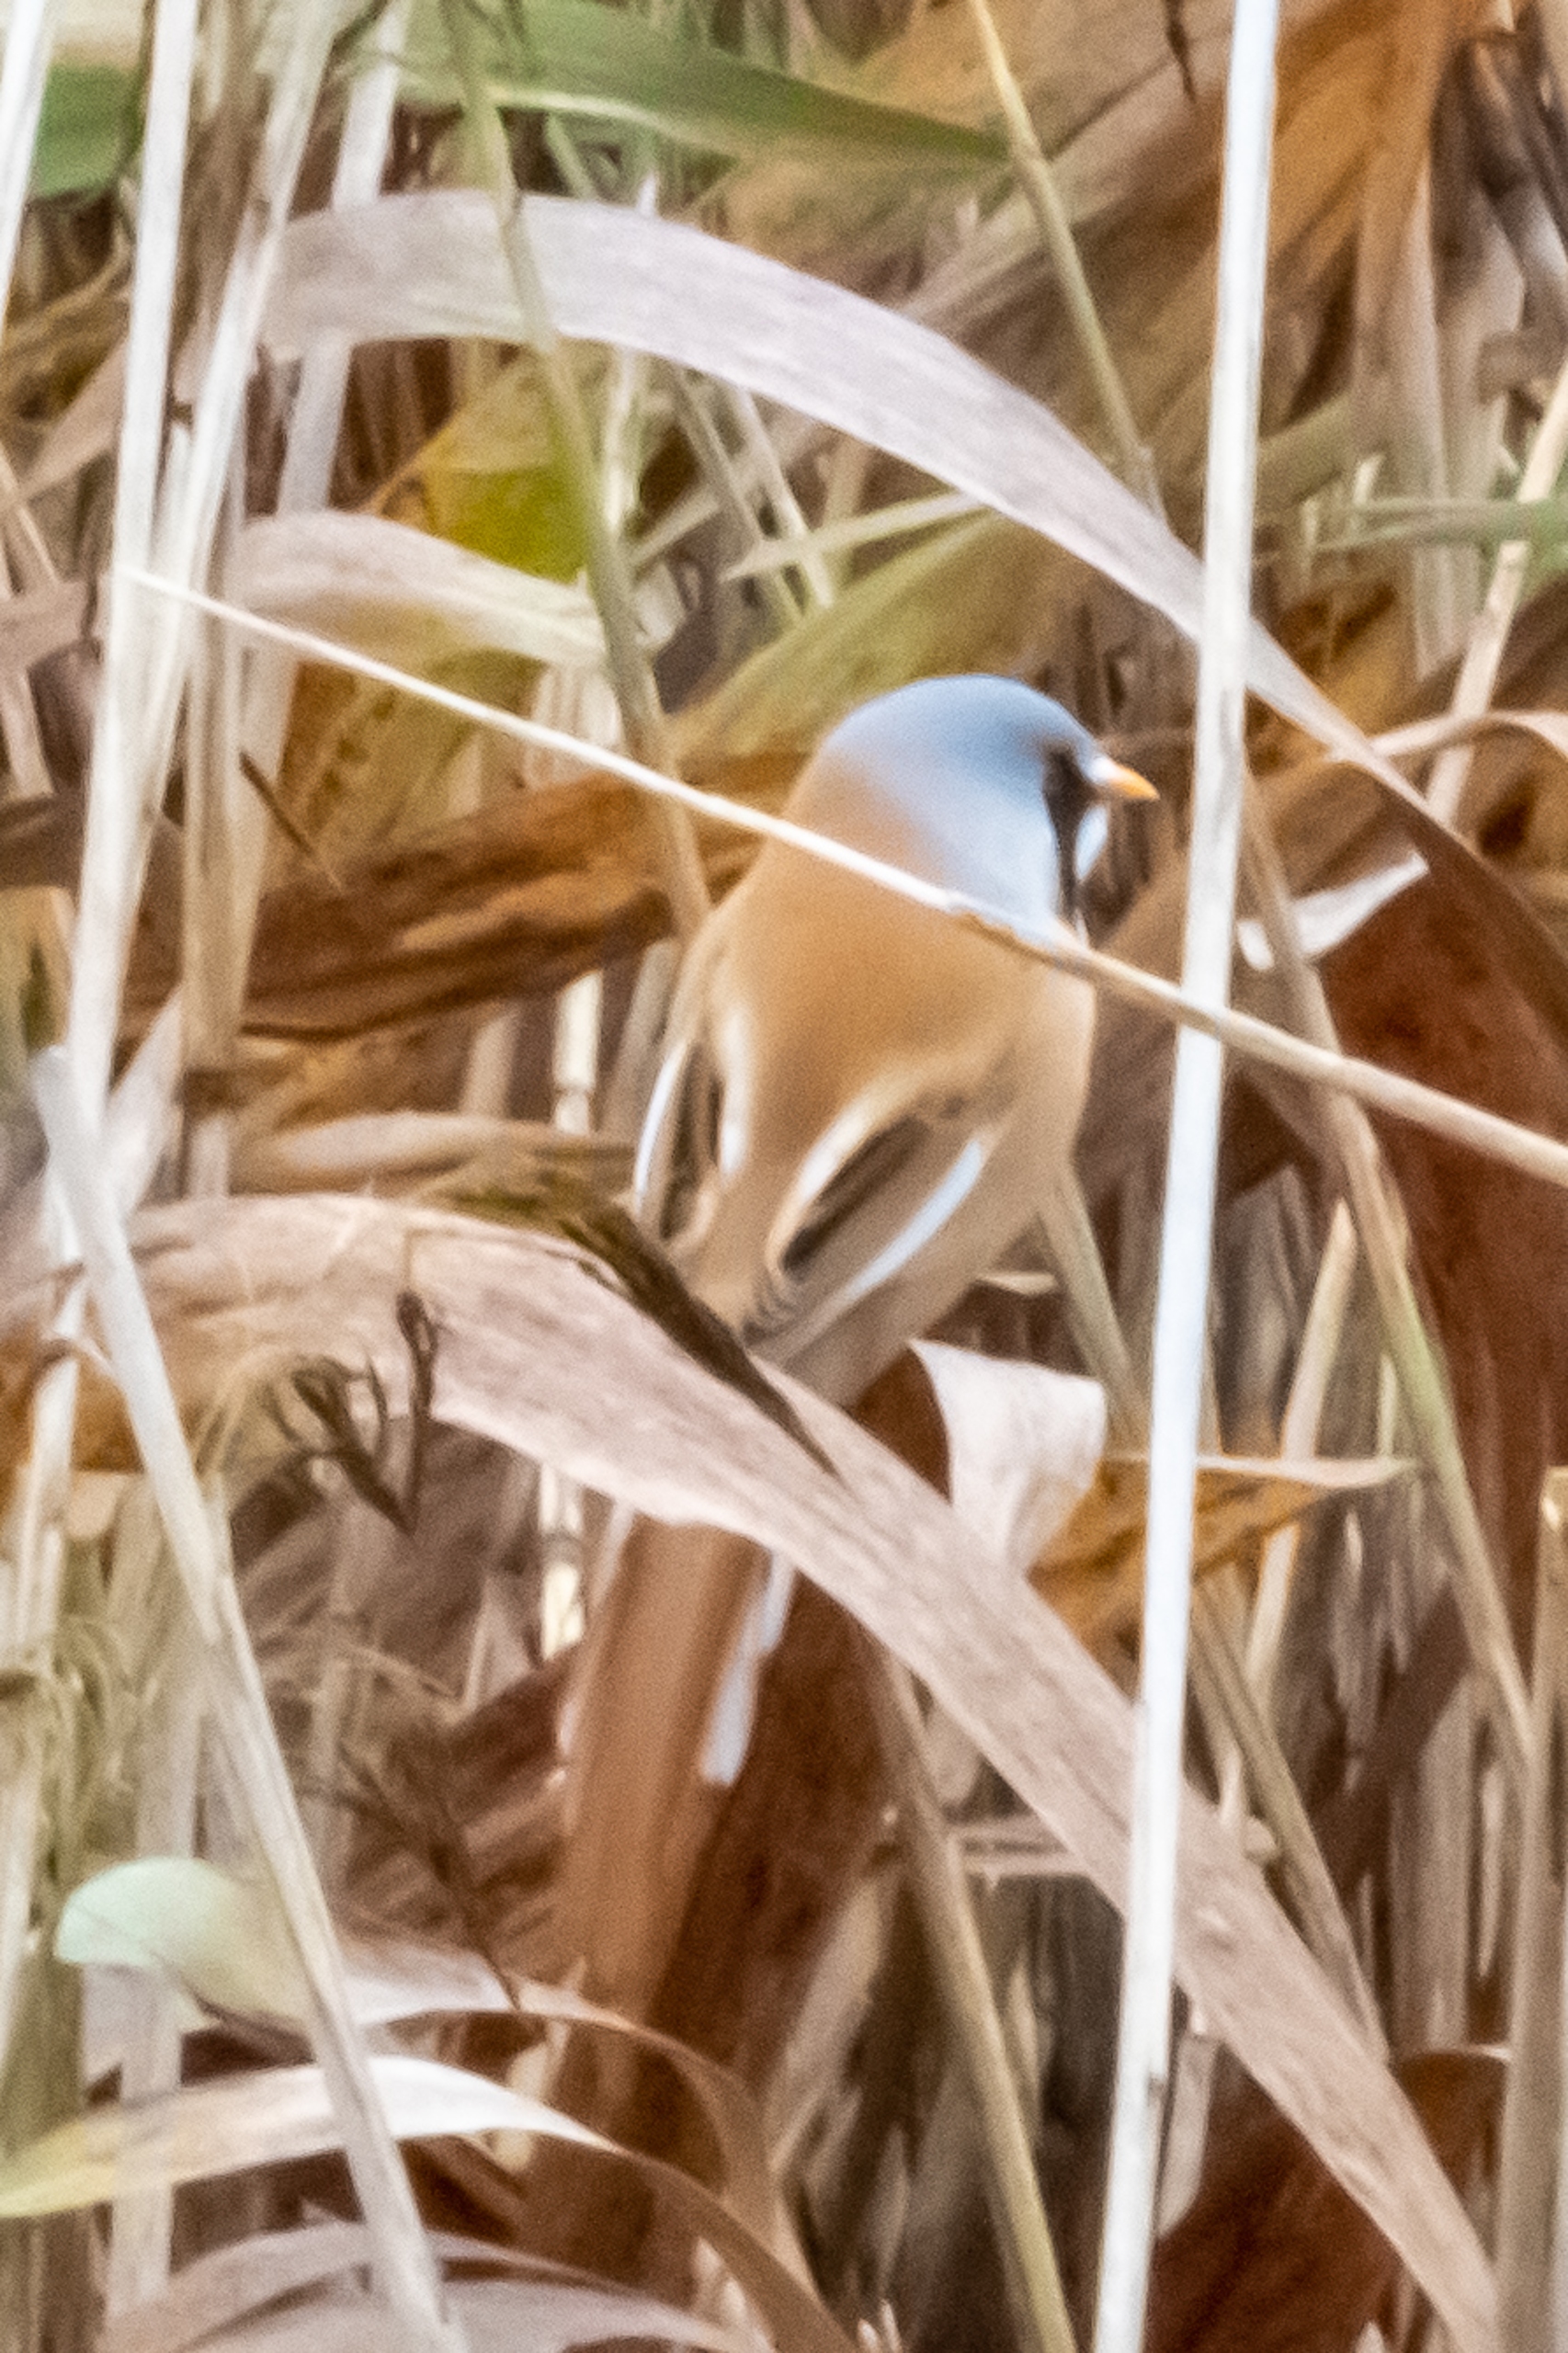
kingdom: Animalia
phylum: Chordata
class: Aves
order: Passeriformes
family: Panuridae
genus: Panurus
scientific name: Panurus biarmicus
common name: Skægmejse
